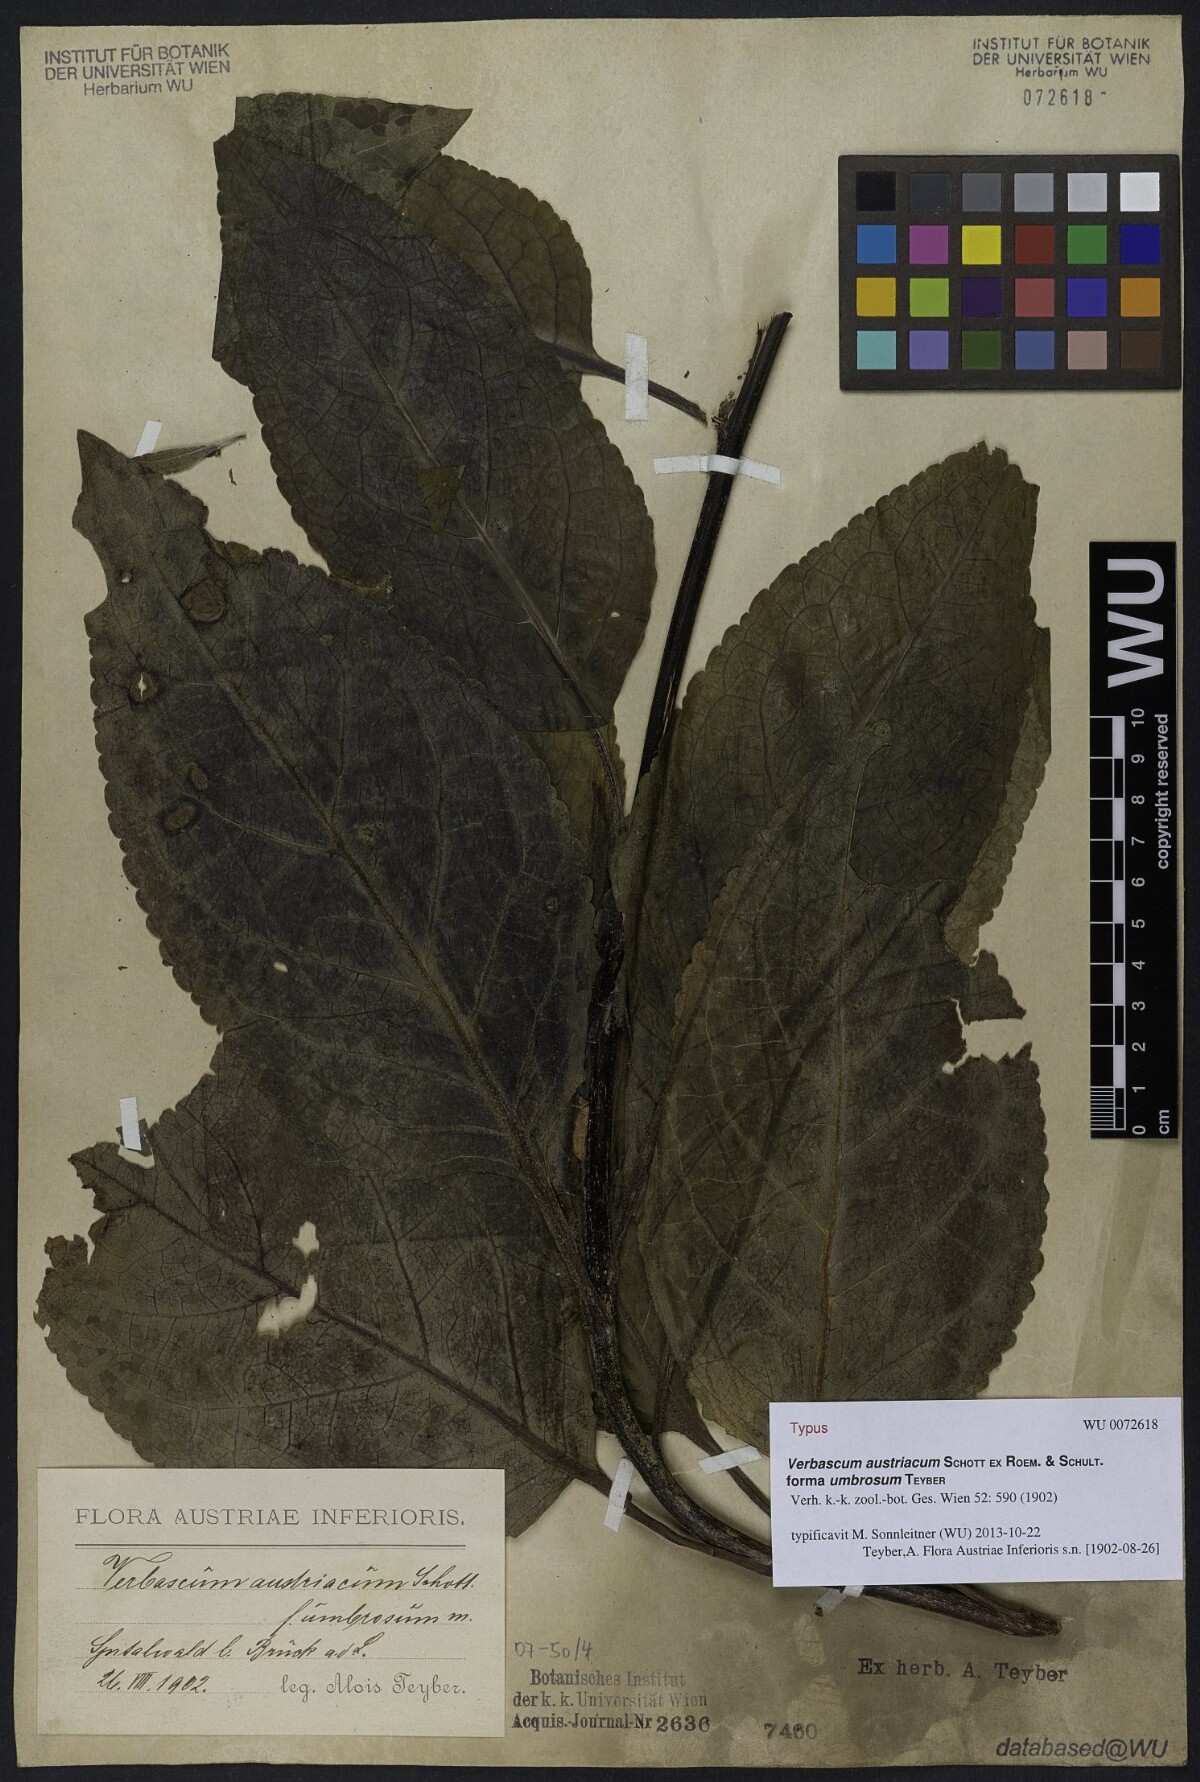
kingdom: Plantae
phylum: Tracheophyta
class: Magnoliopsida
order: Lamiales
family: Scrophulariaceae
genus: Verbascum
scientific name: Verbascum chaixii
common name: Nettle-leaved mullein
